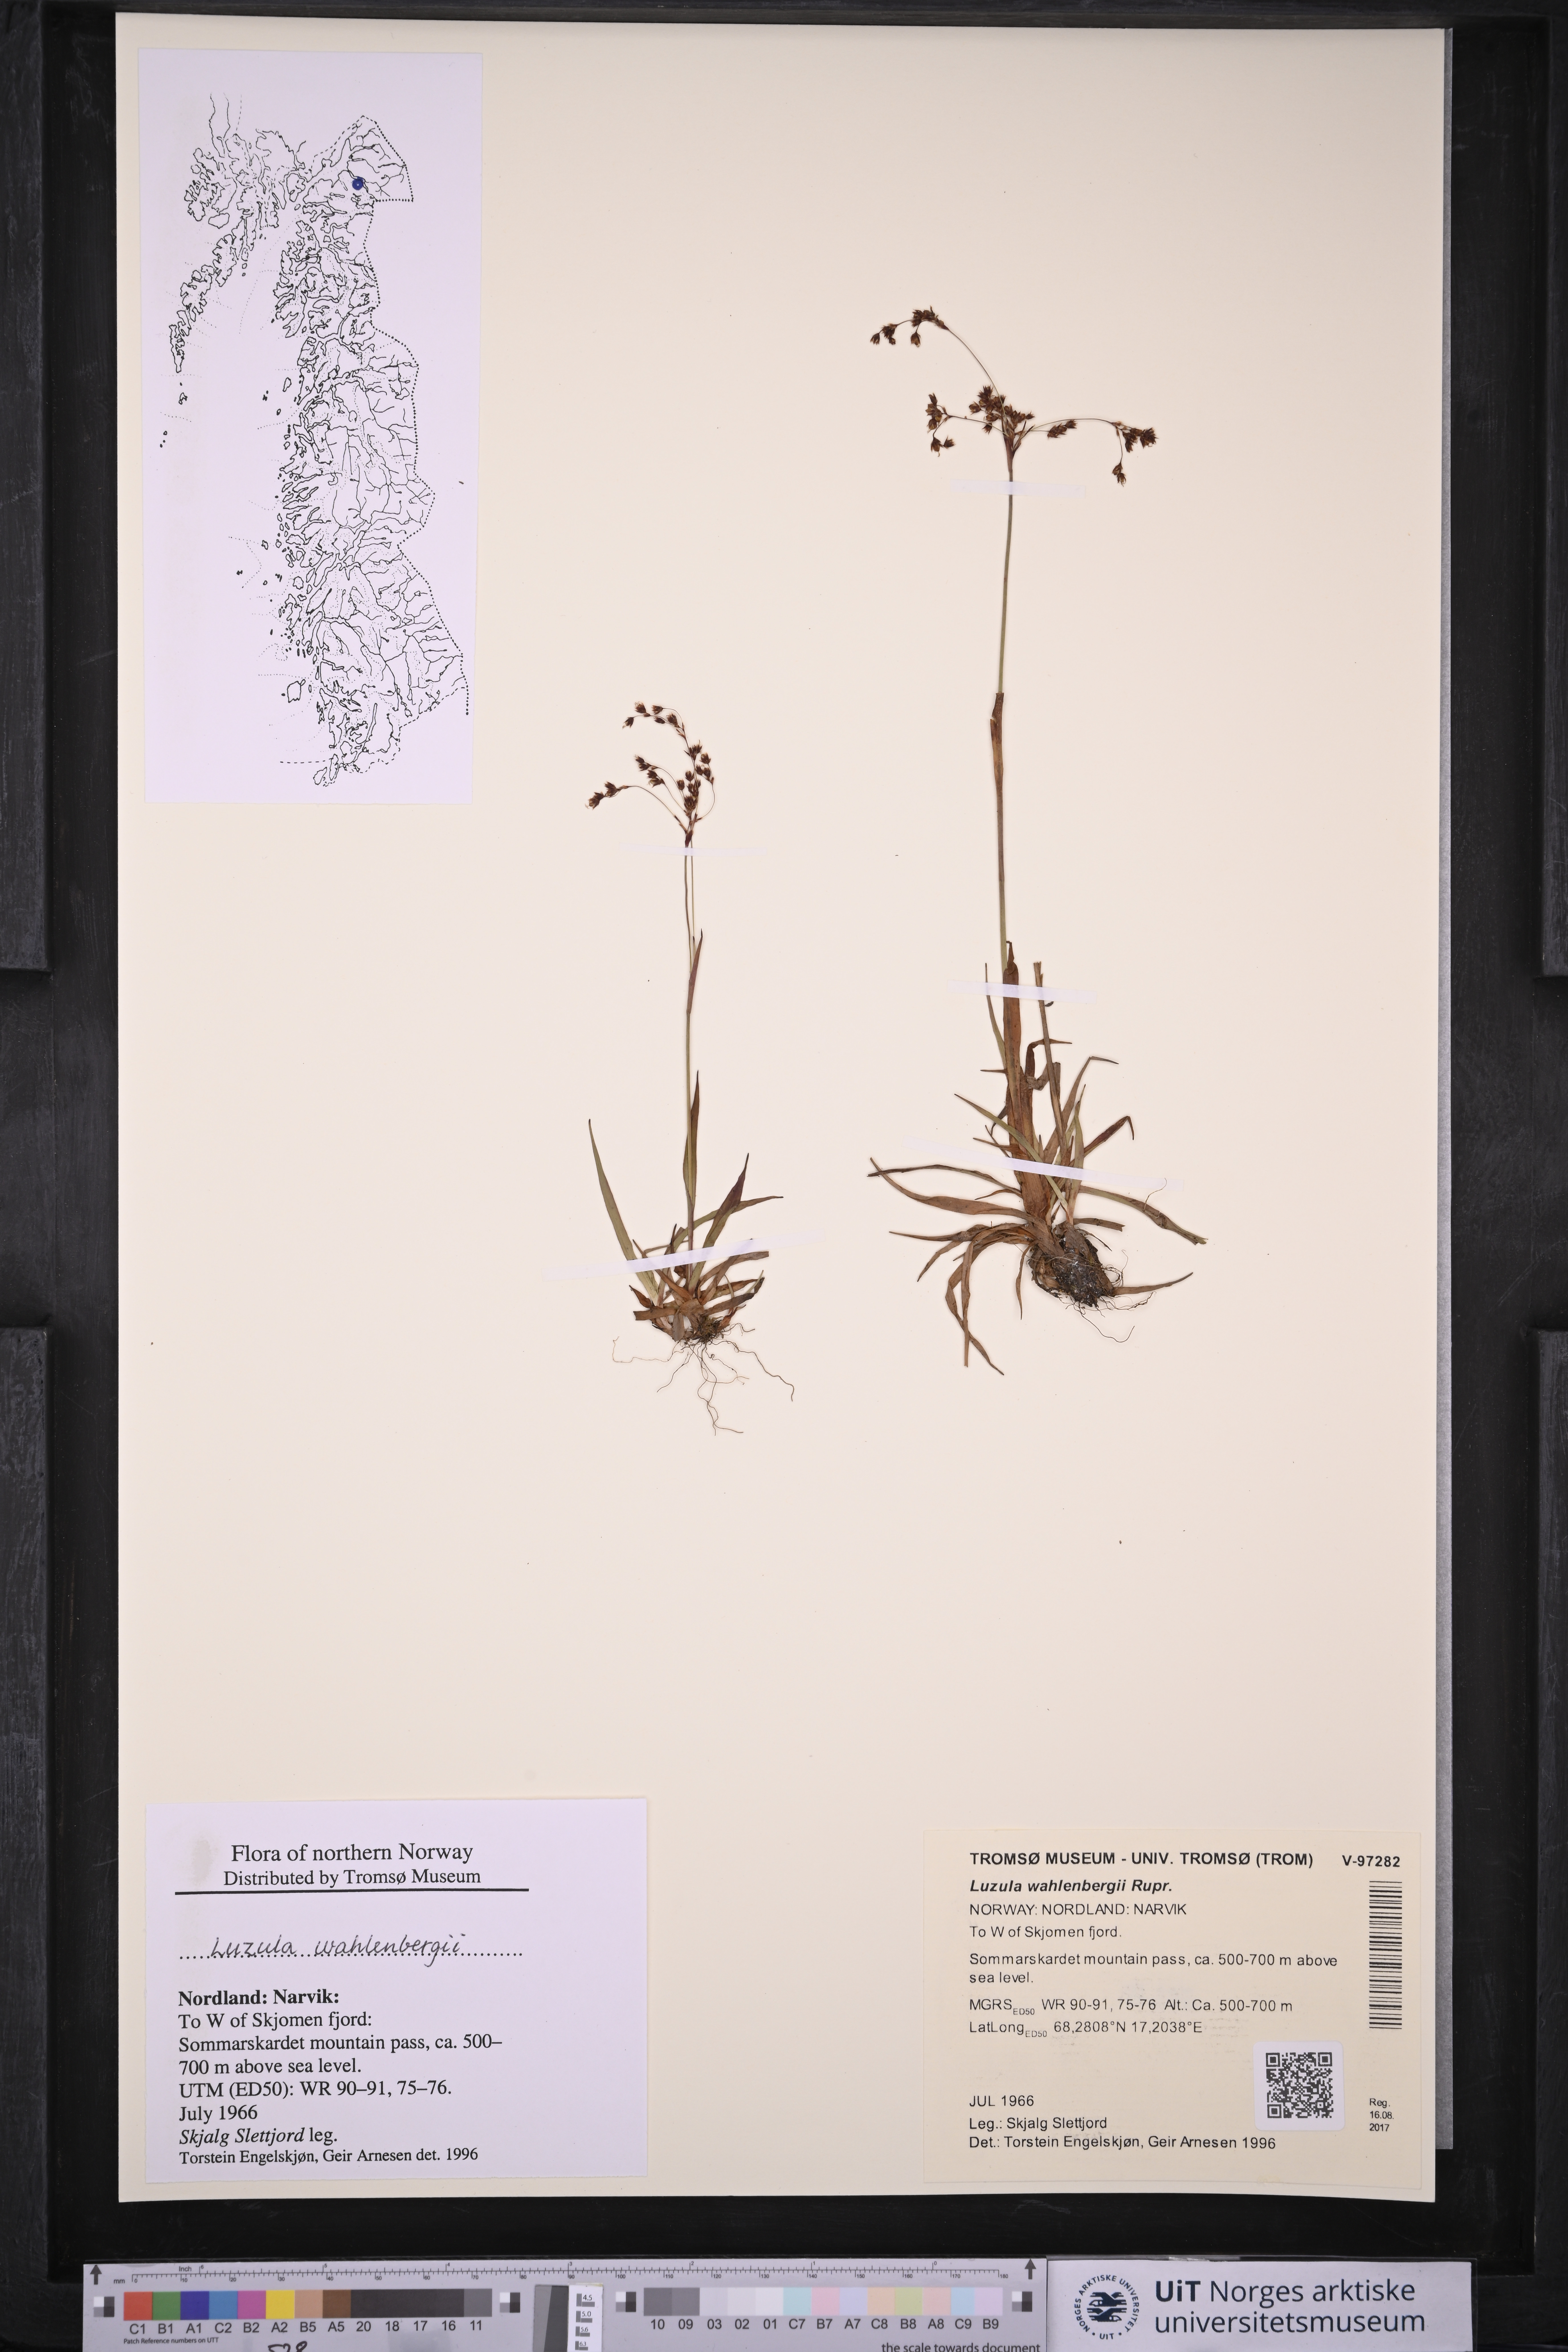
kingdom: Plantae
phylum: Tracheophyta
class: Liliopsida
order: Poales
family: Juncaceae
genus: Luzula
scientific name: Luzula wahlenbergii
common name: Wahlenberg's wood-rush
